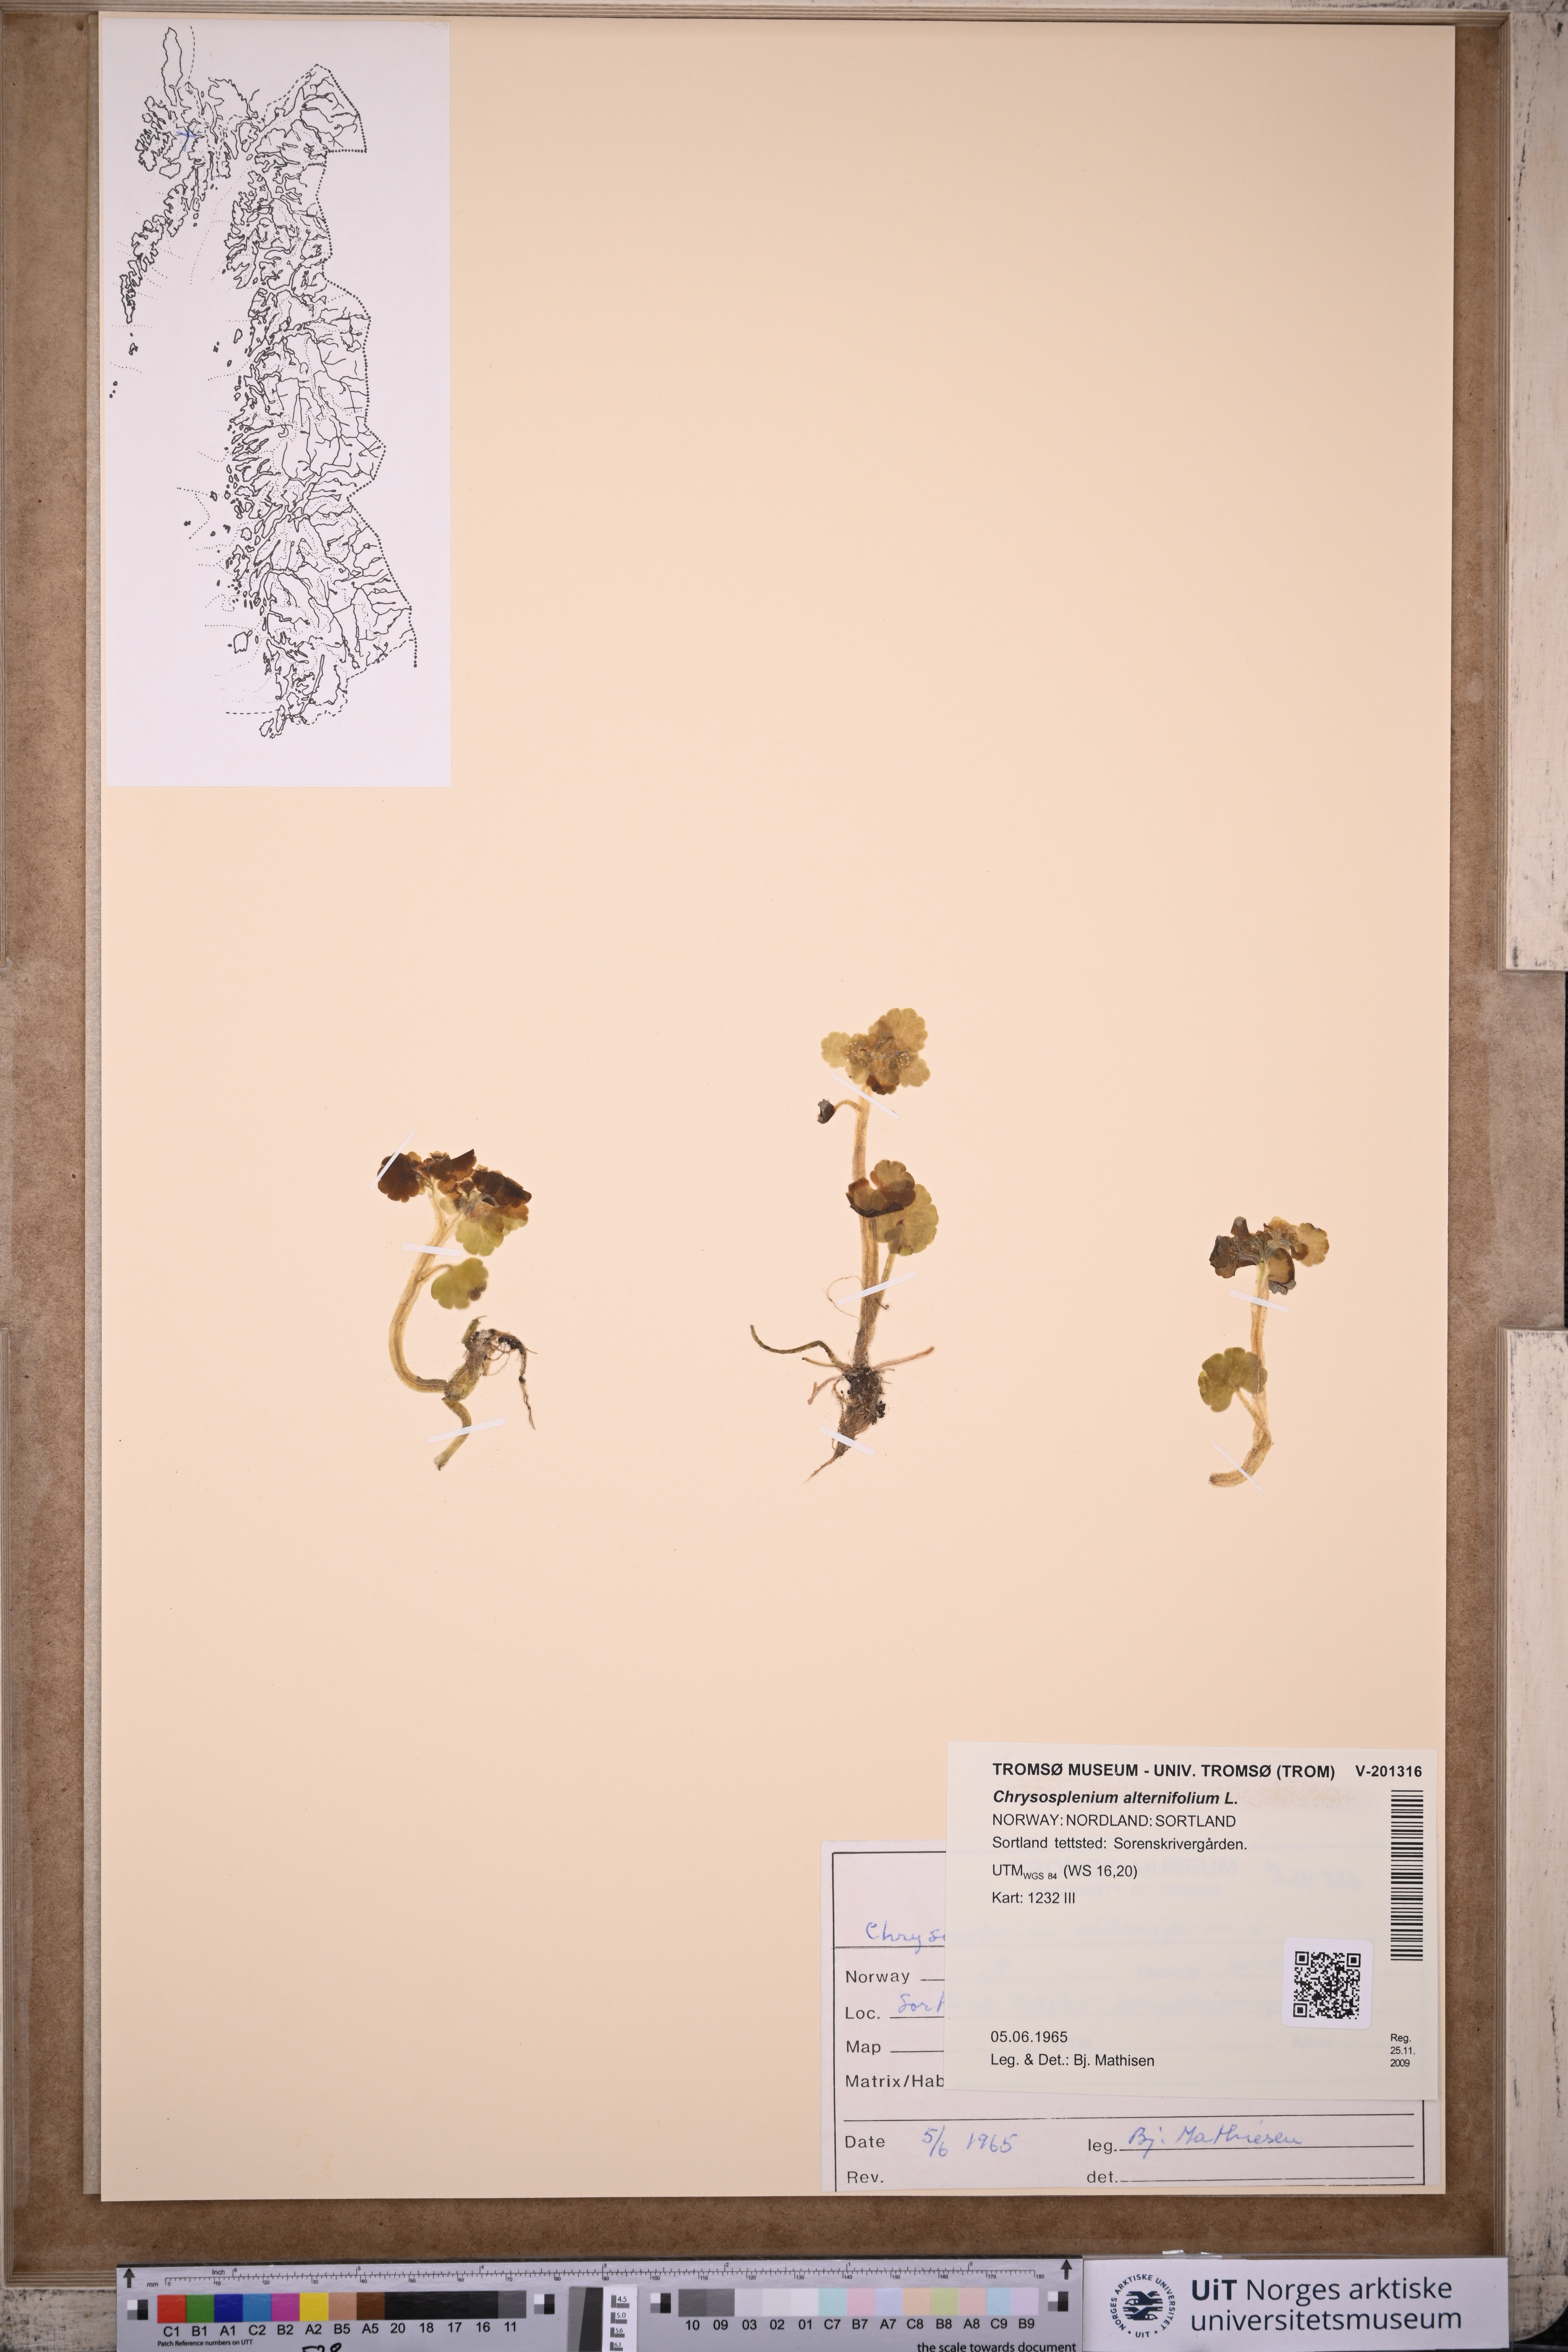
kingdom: Plantae
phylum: Tracheophyta
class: Magnoliopsida
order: Saxifragales
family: Saxifragaceae
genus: Chrysosplenium
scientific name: Chrysosplenium alternifolium
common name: Alternate-leaved golden-saxifrage
